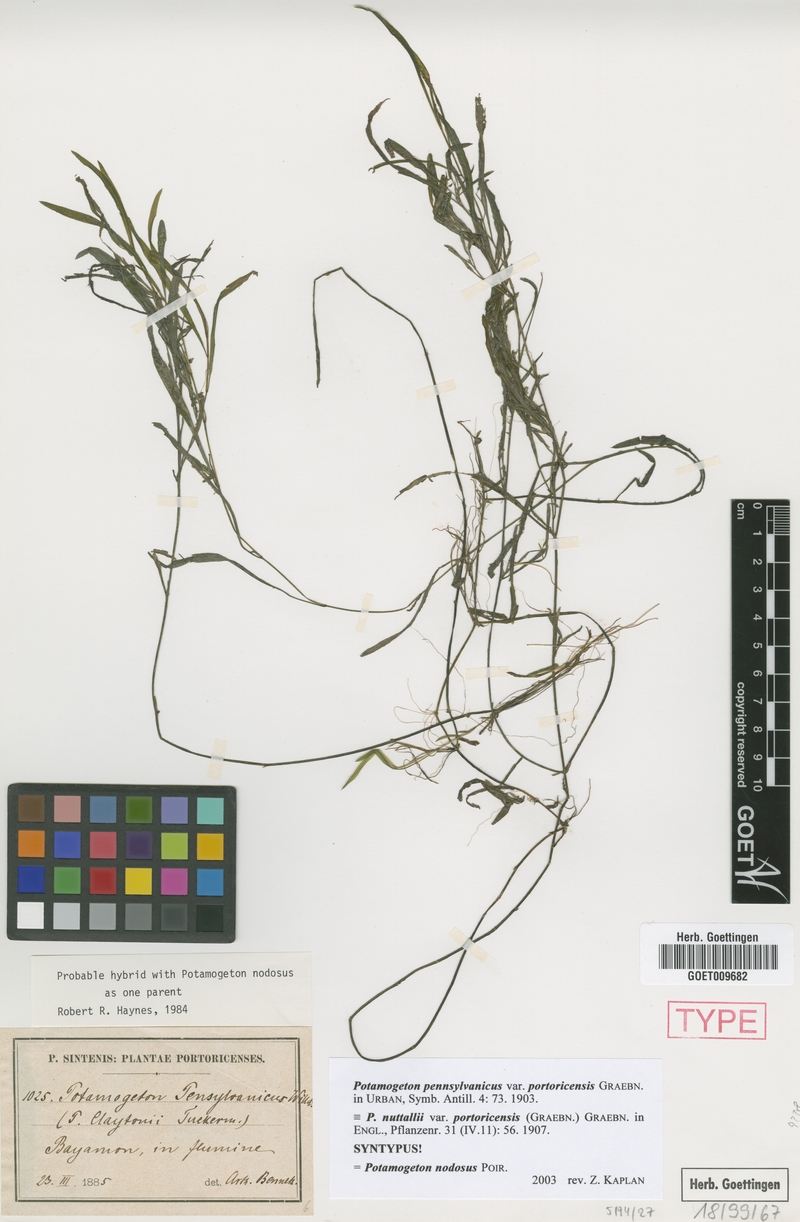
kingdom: Plantae
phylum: Tracheophyta
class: Liliopsida
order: Alismatales
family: Potamogetonaceae
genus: Potamogeton
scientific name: Potamogeton nodosus
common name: Loddon pondweed
